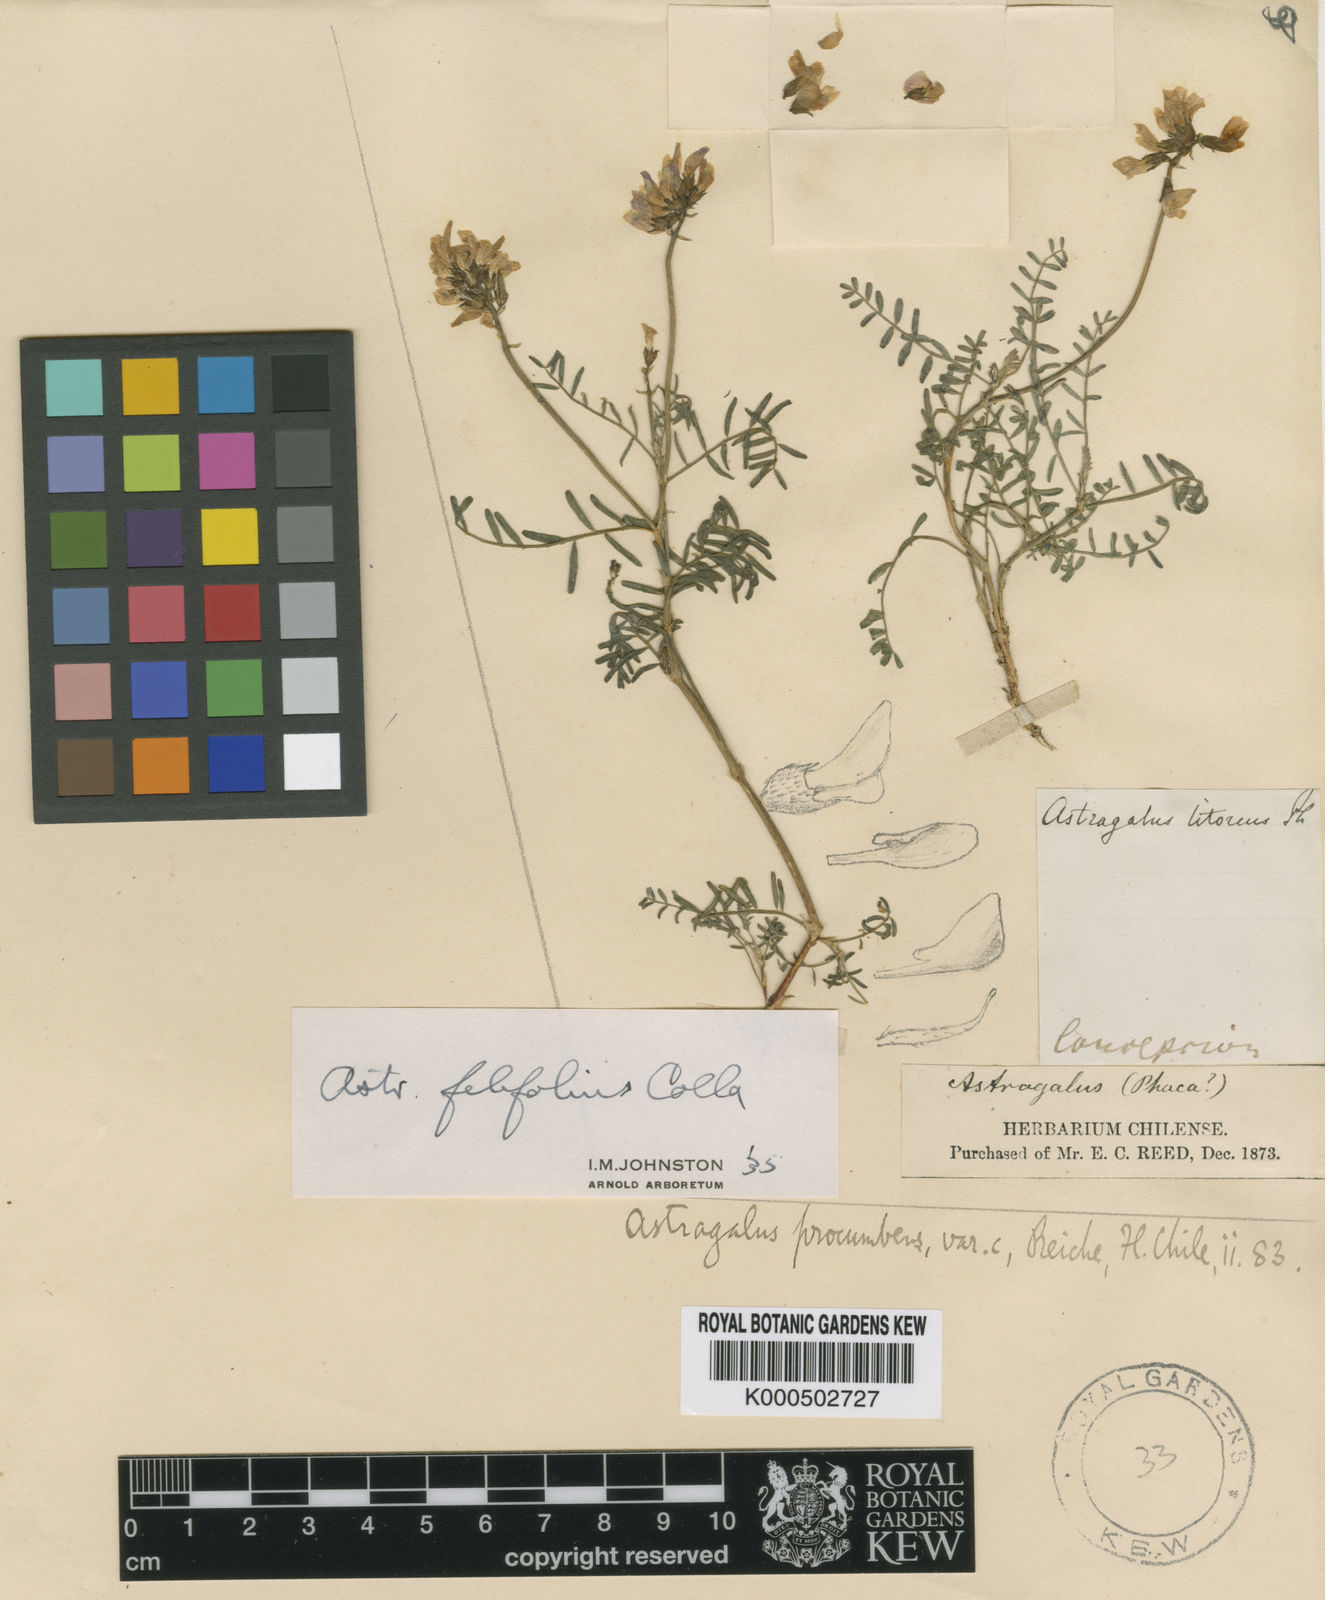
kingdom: Plantae
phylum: Tracheophyta
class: Magnoliopsida
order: Fabales
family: Fabaceae
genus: Astragalus
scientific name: Astragalus berteroi
